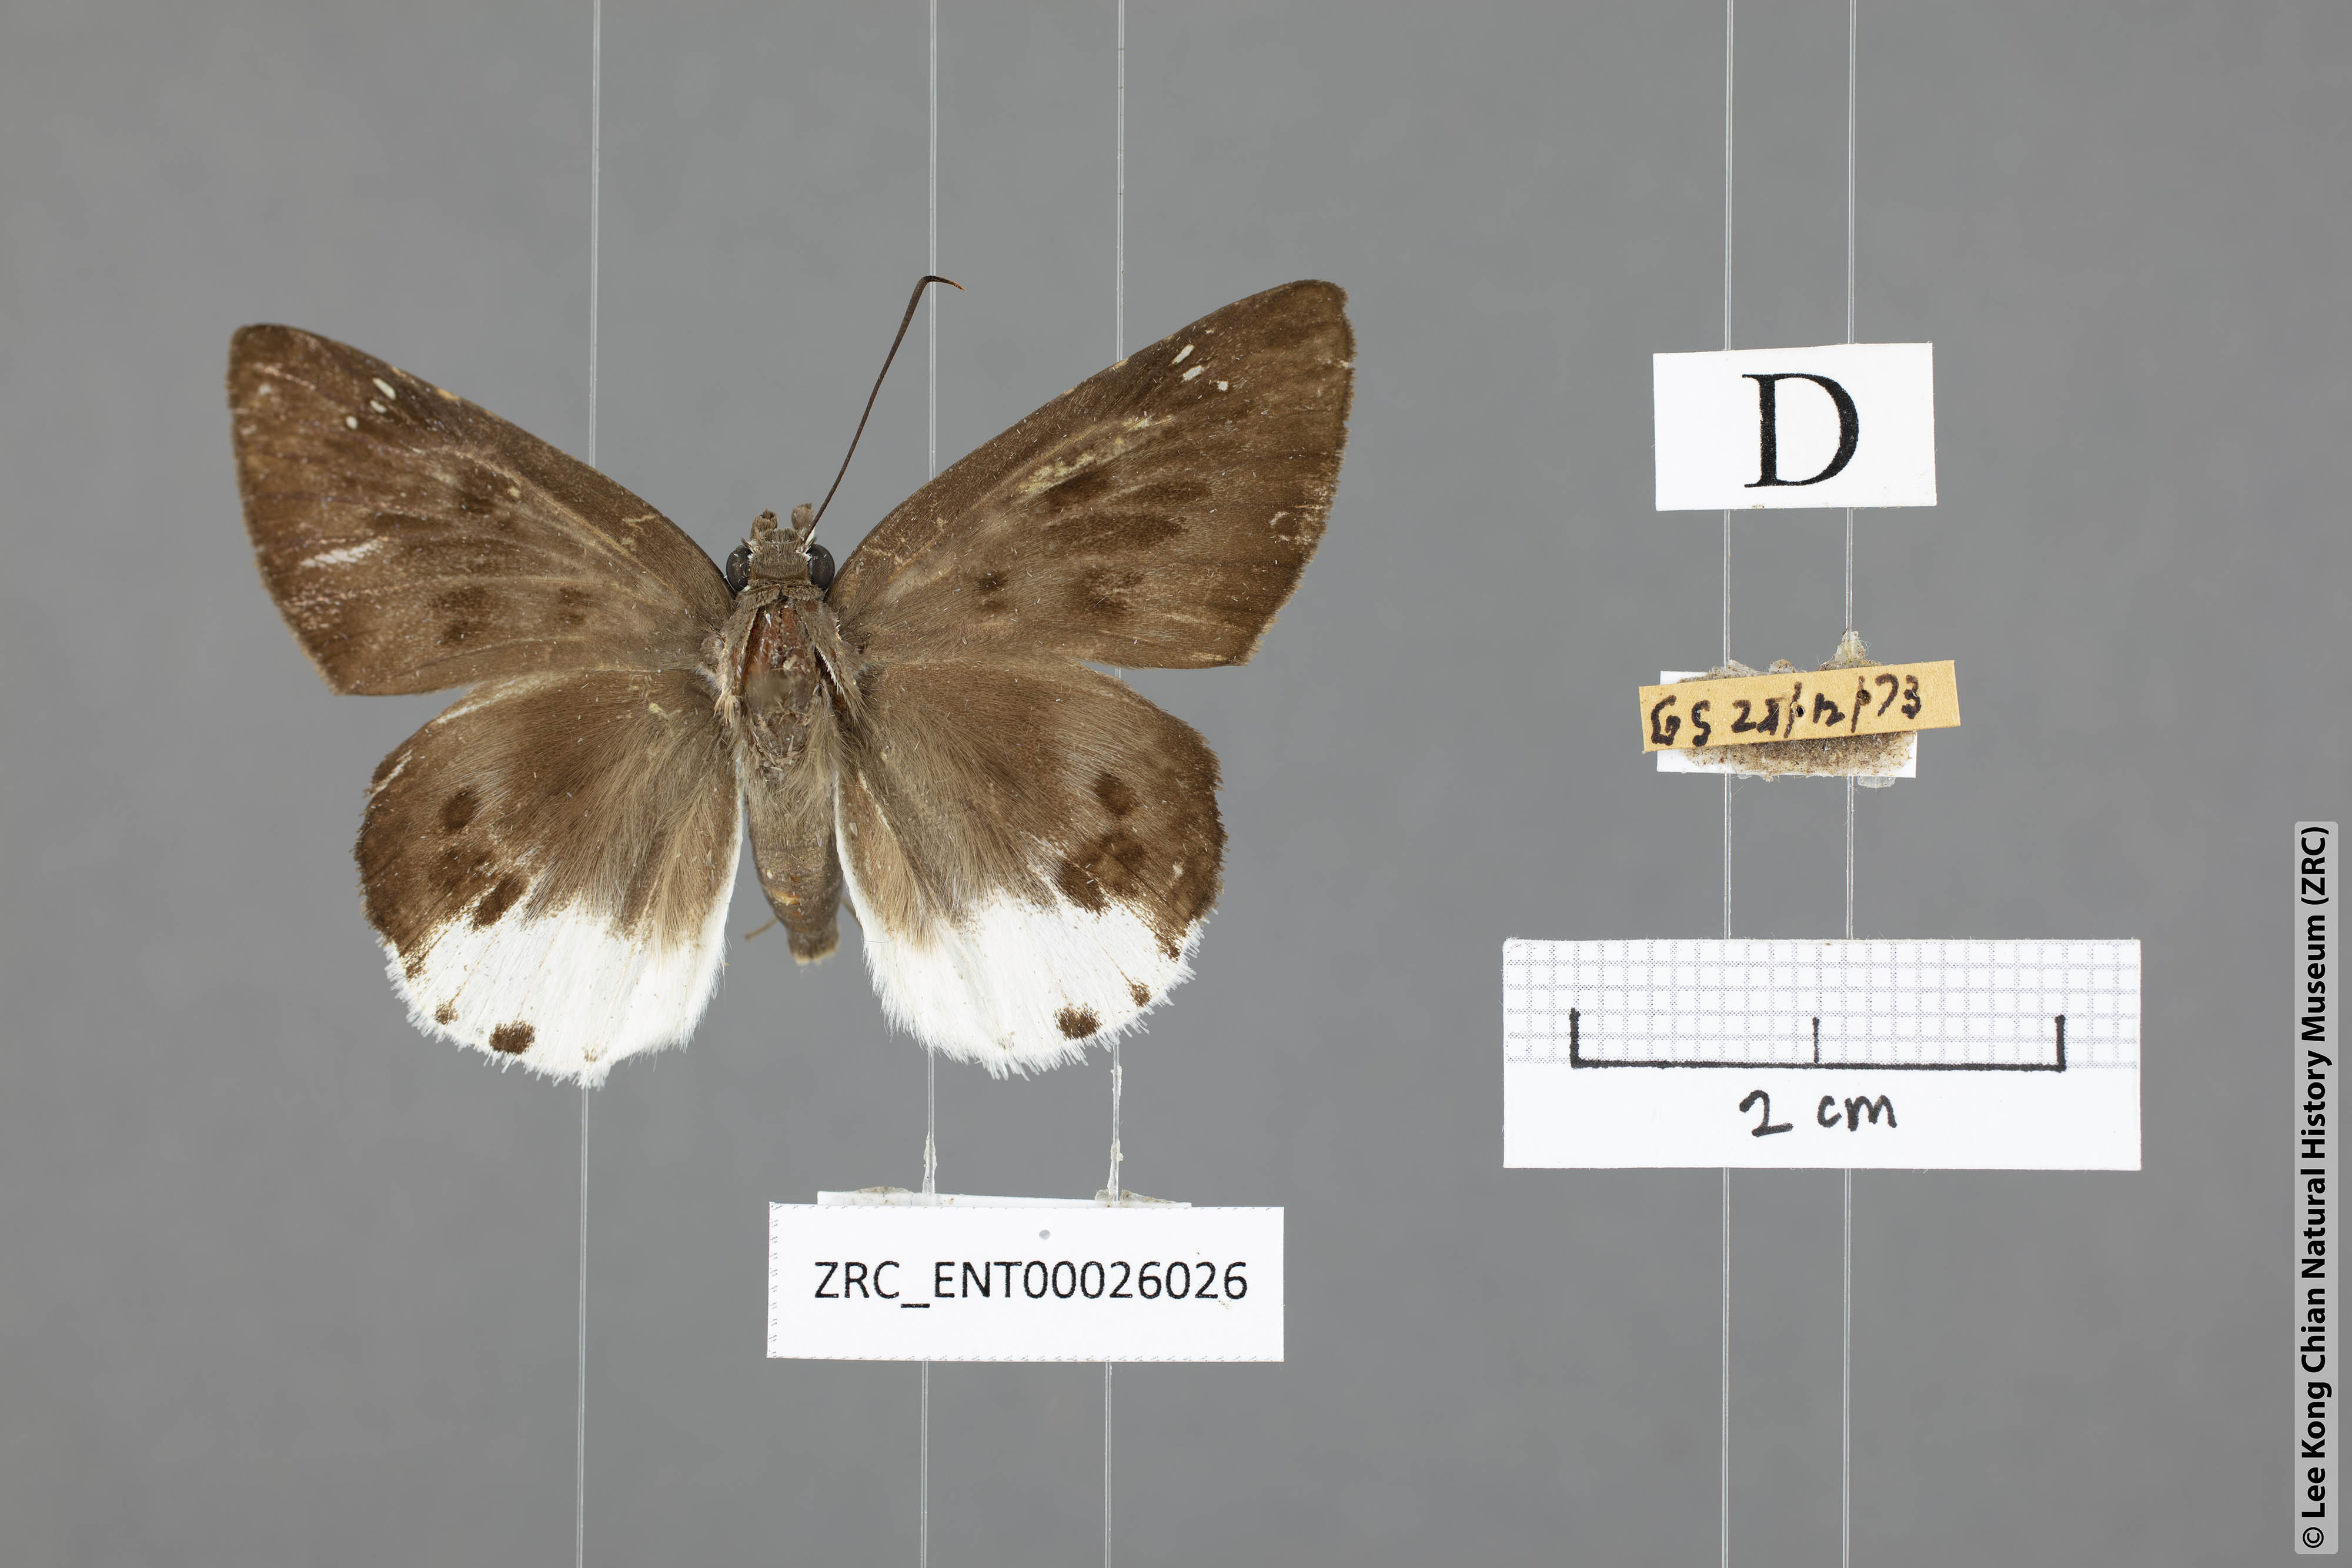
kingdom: Animalia
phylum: Arthropoda
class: Insecta
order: Lepidoptera
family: Hesperiidae
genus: Tagiades
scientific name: Tagiades parra
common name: Straight snow flat
